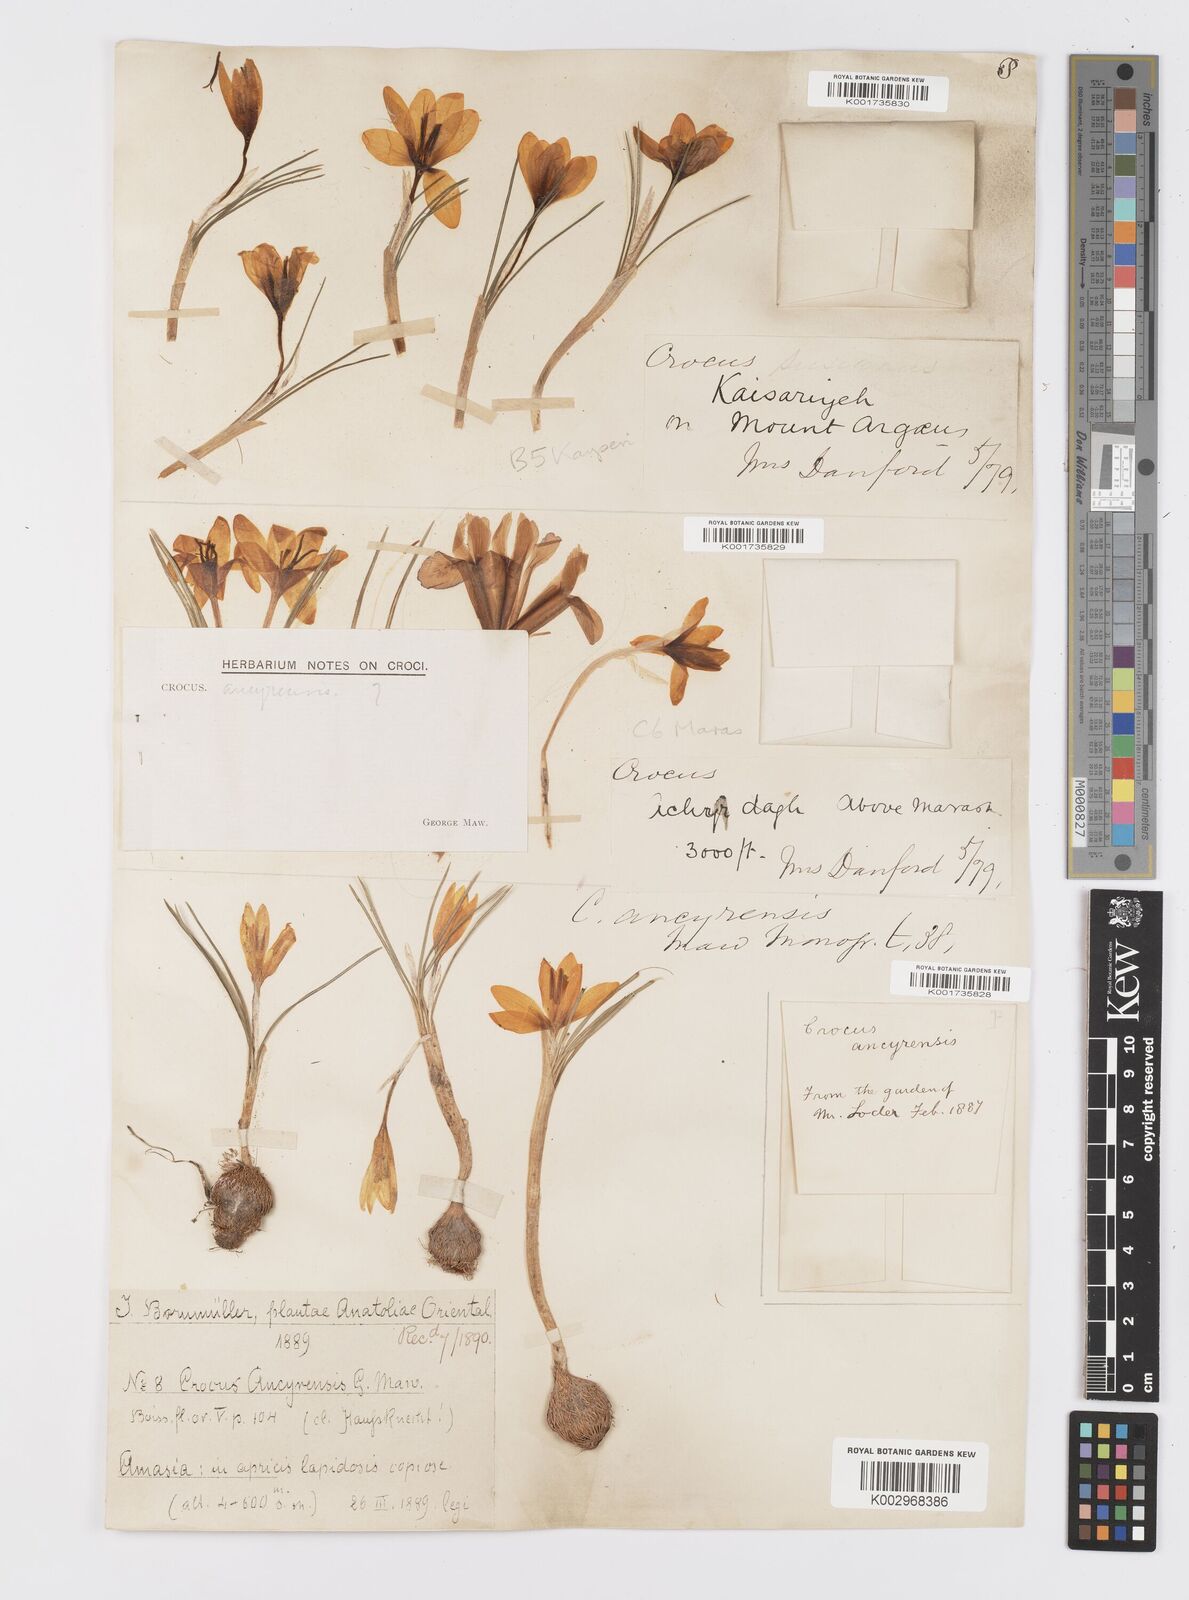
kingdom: Plantae
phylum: Tracheophyta
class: Liliopsida
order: Asparagales
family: Iridaceae
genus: Crocus
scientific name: Crocus ancyrensis
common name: Ankara crocus
